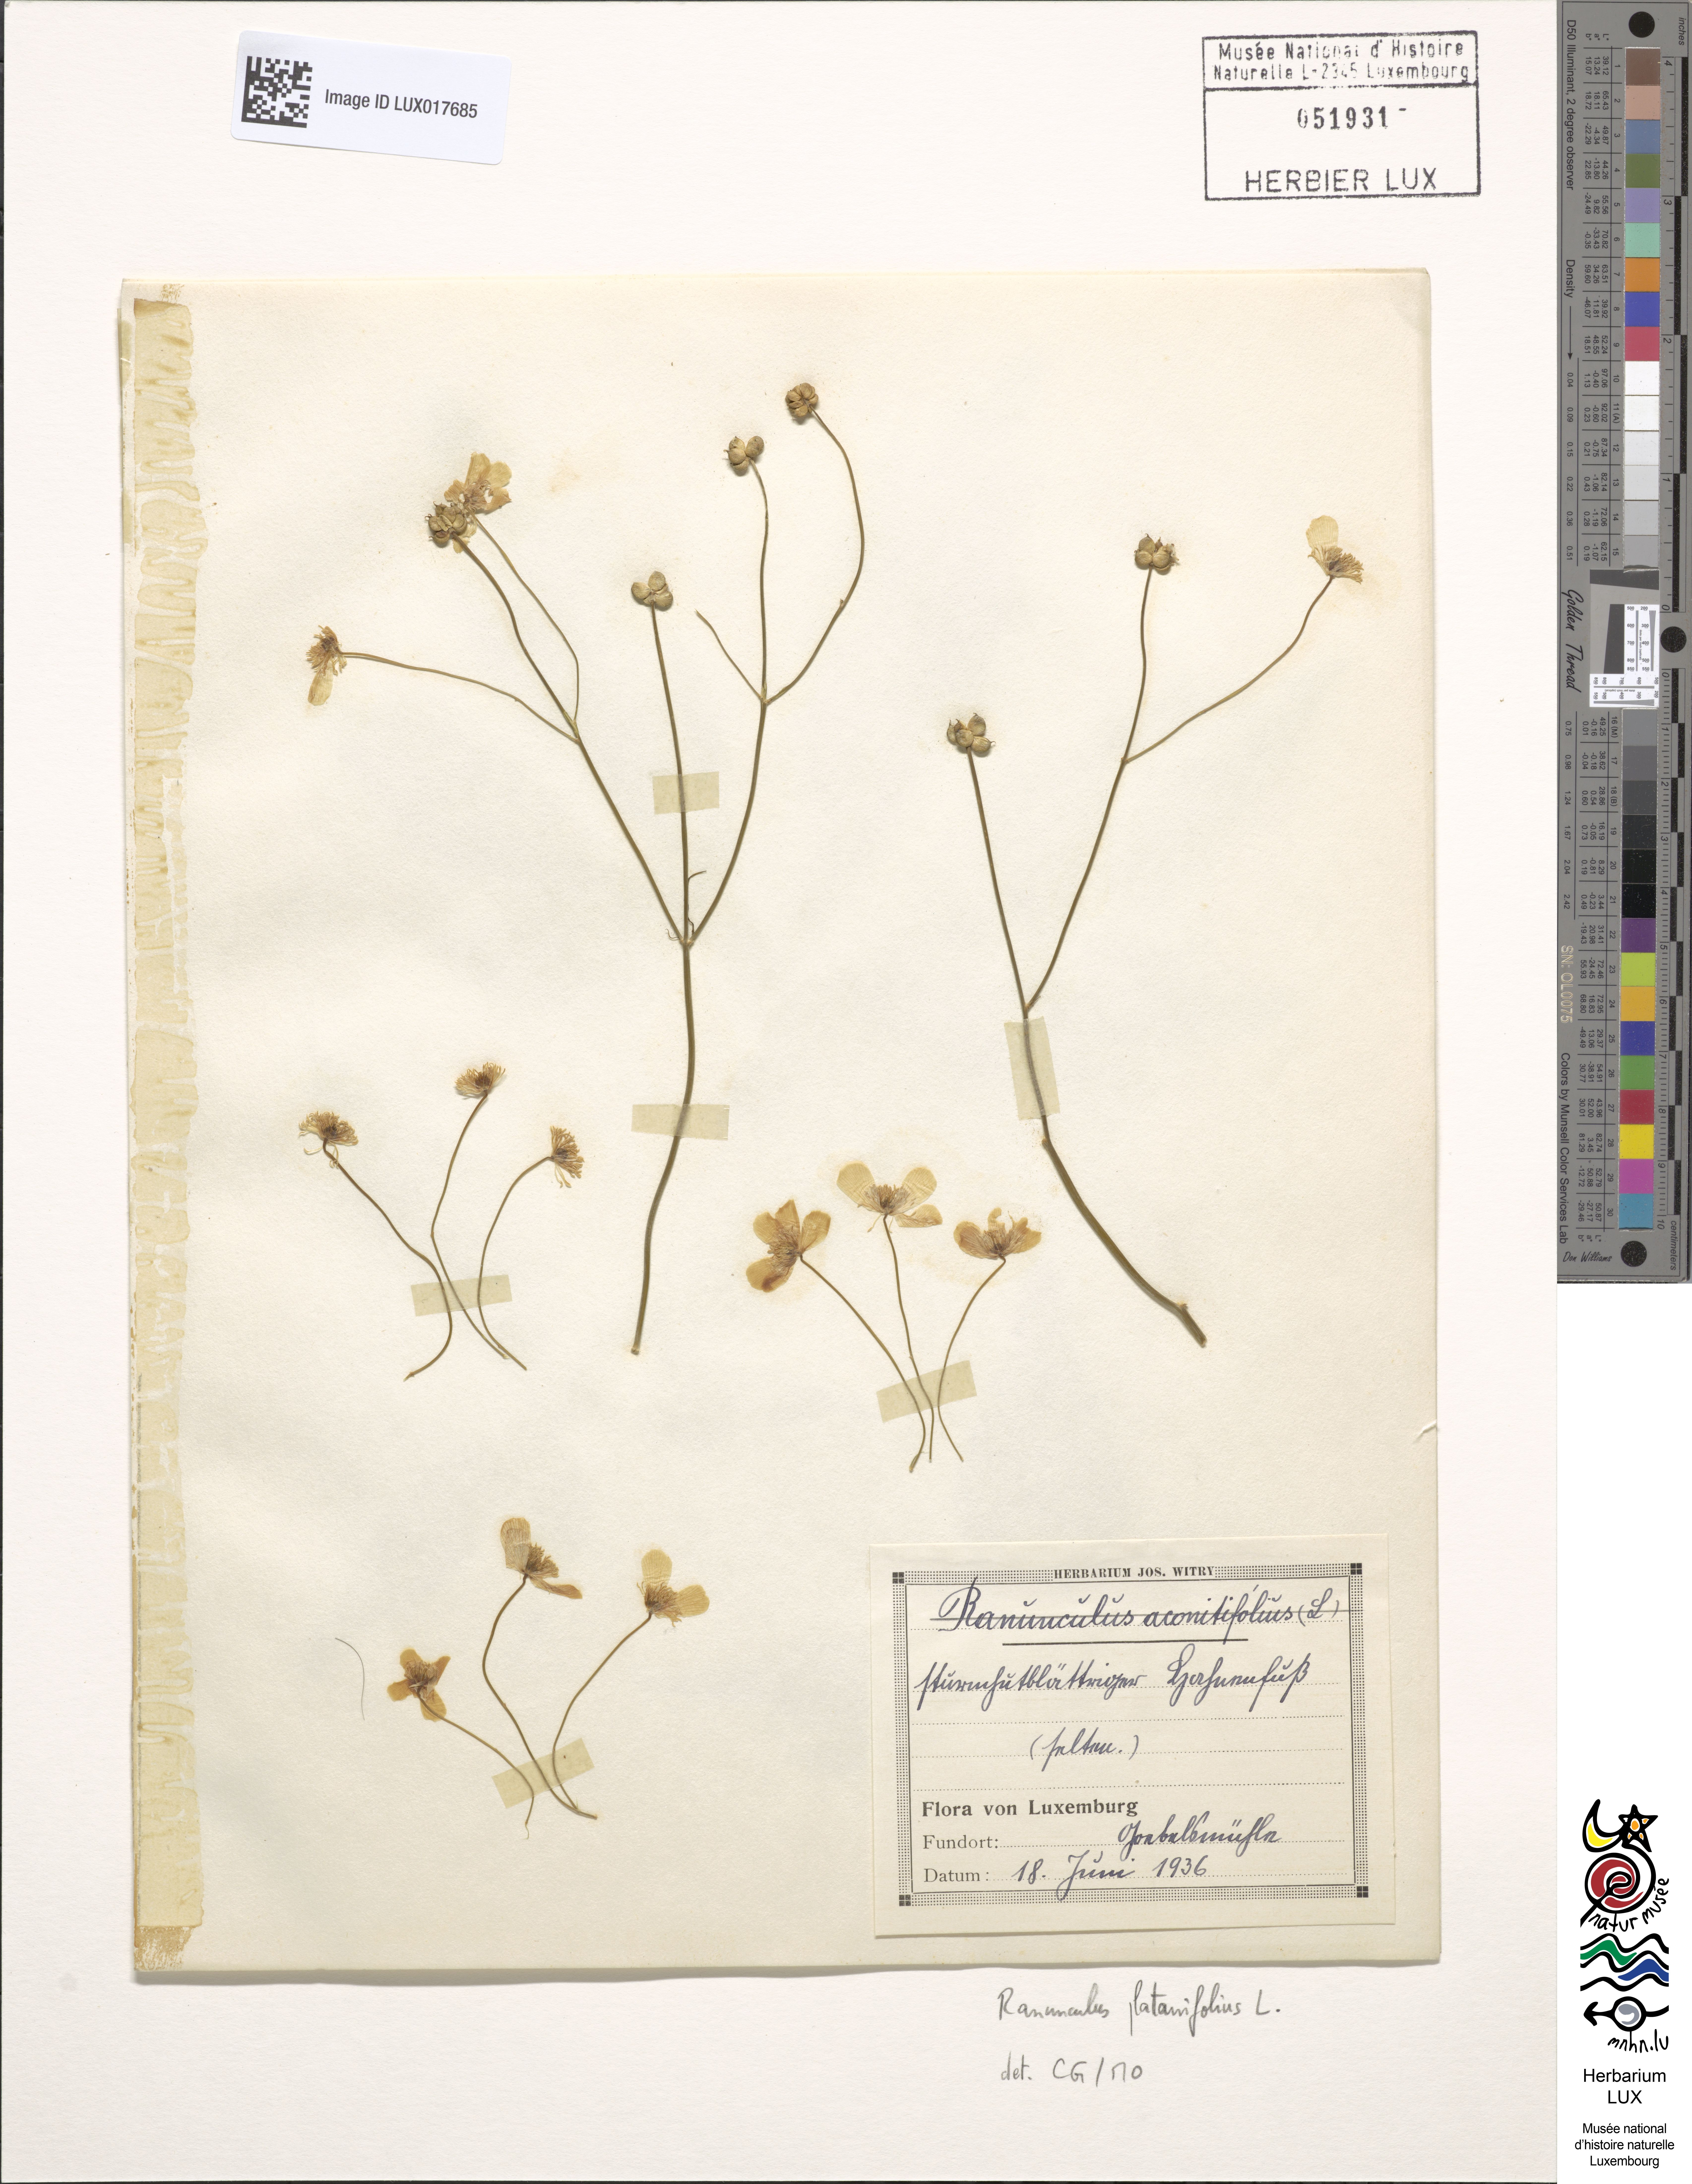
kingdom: Plantae
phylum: Tracheophyta
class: Magnoliopsida
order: Ranunculales
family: Ranunculaceae
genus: Ranunculus
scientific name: Ranunculus platanifolius
